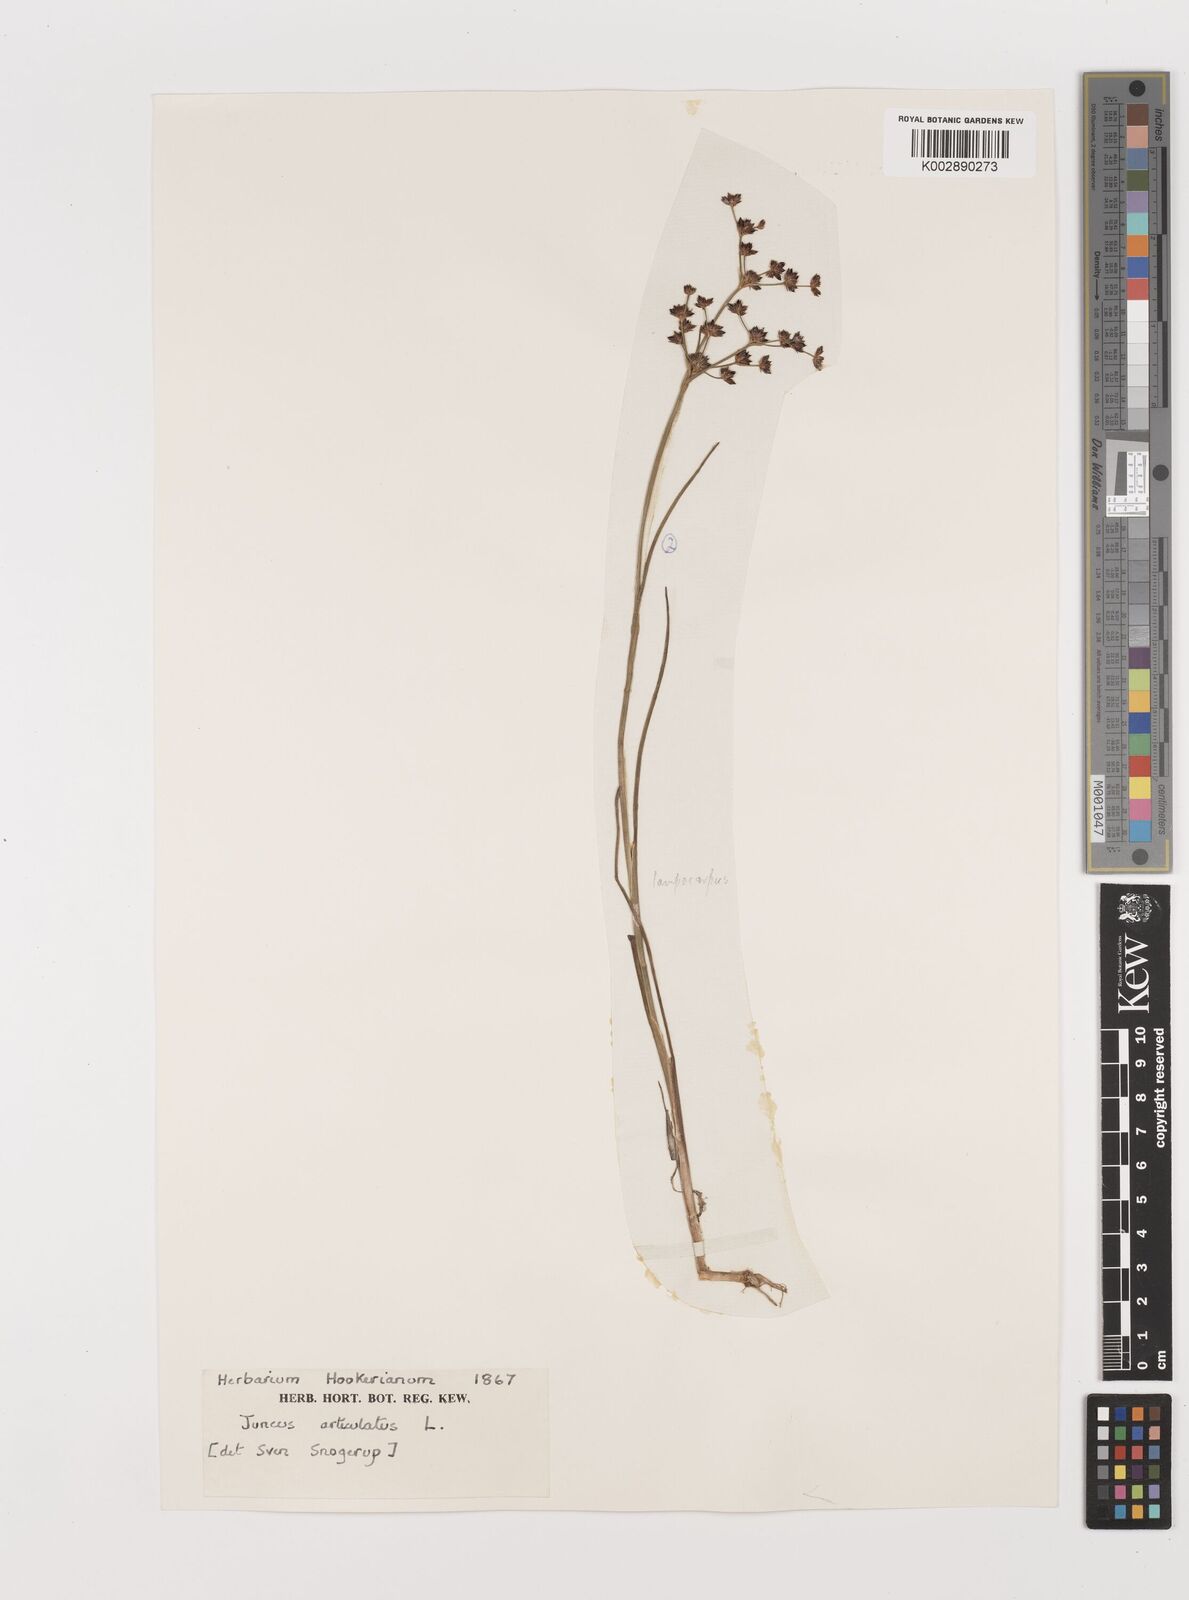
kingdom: Plantae
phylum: Tracheophyta
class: Liliopsida
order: Poales
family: Juncaceae
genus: Juncus
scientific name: Juncus articulatus
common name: Jointed rush
